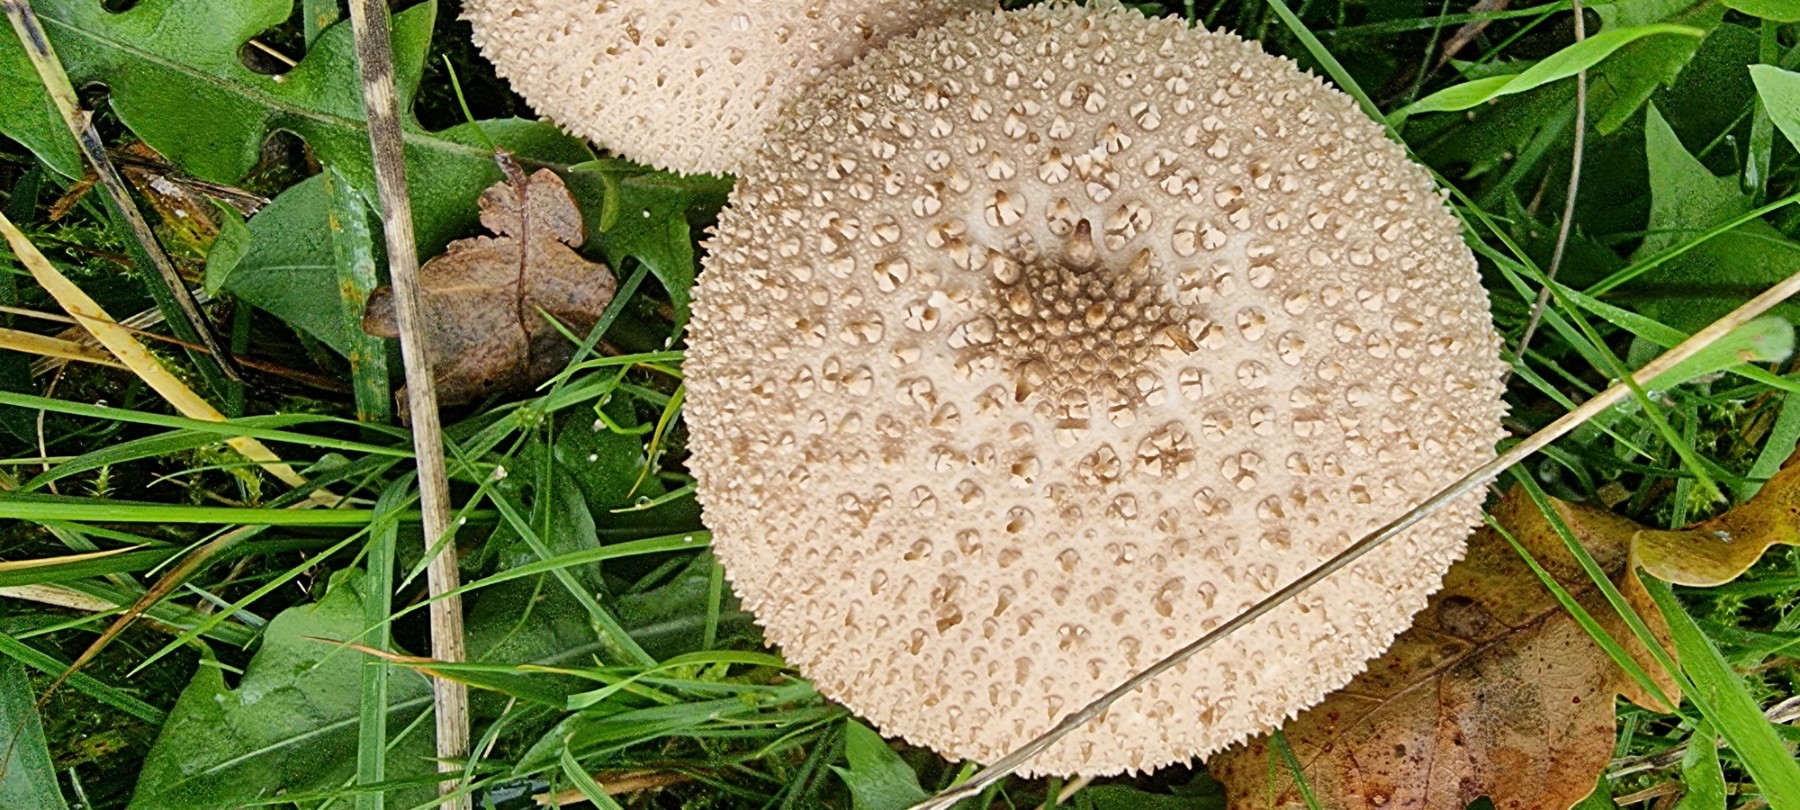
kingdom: Fungi
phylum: Basidiomycota
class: Agaricomycetes
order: Agaricales
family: Lycoperdaceae
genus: Lycoperdon
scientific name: Lycoperdon perlatum
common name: krystal-støvbold
